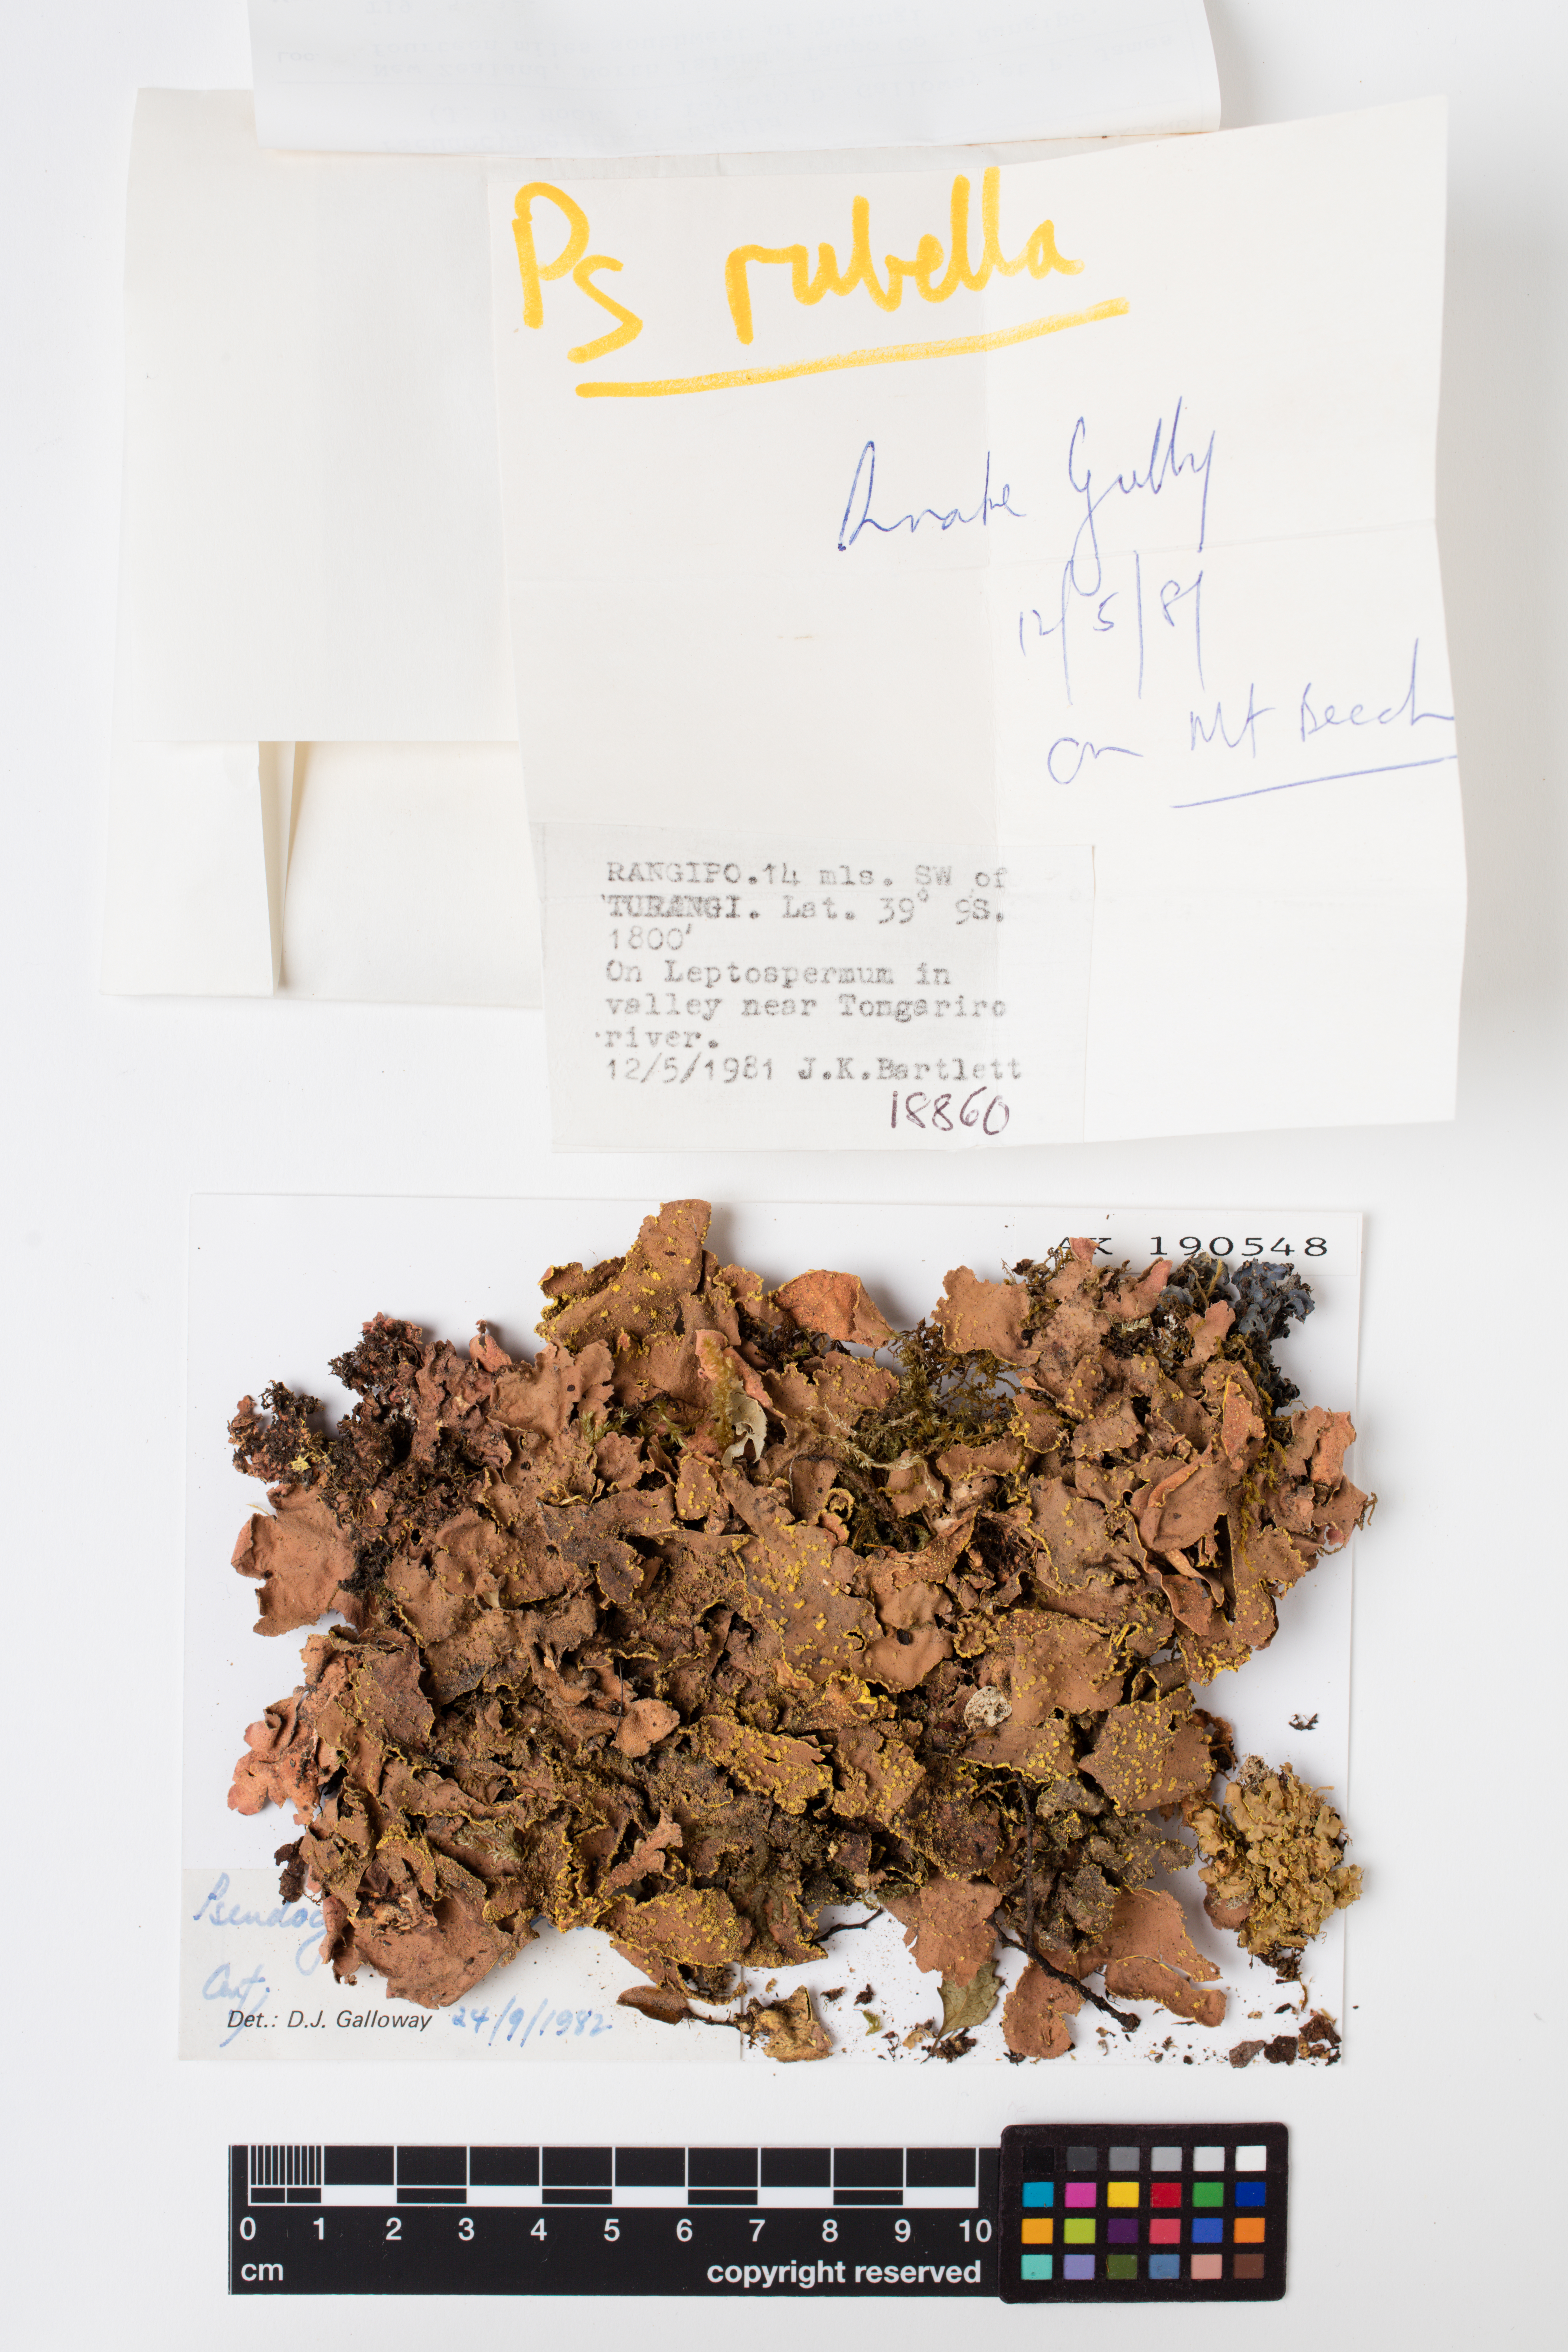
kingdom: Fungi
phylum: Ascomycota
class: Lecanoromycetes
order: Peltigerales
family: Lobariaceae
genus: Pseudocyphellaria
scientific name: Pseudocyphellaria rubella
